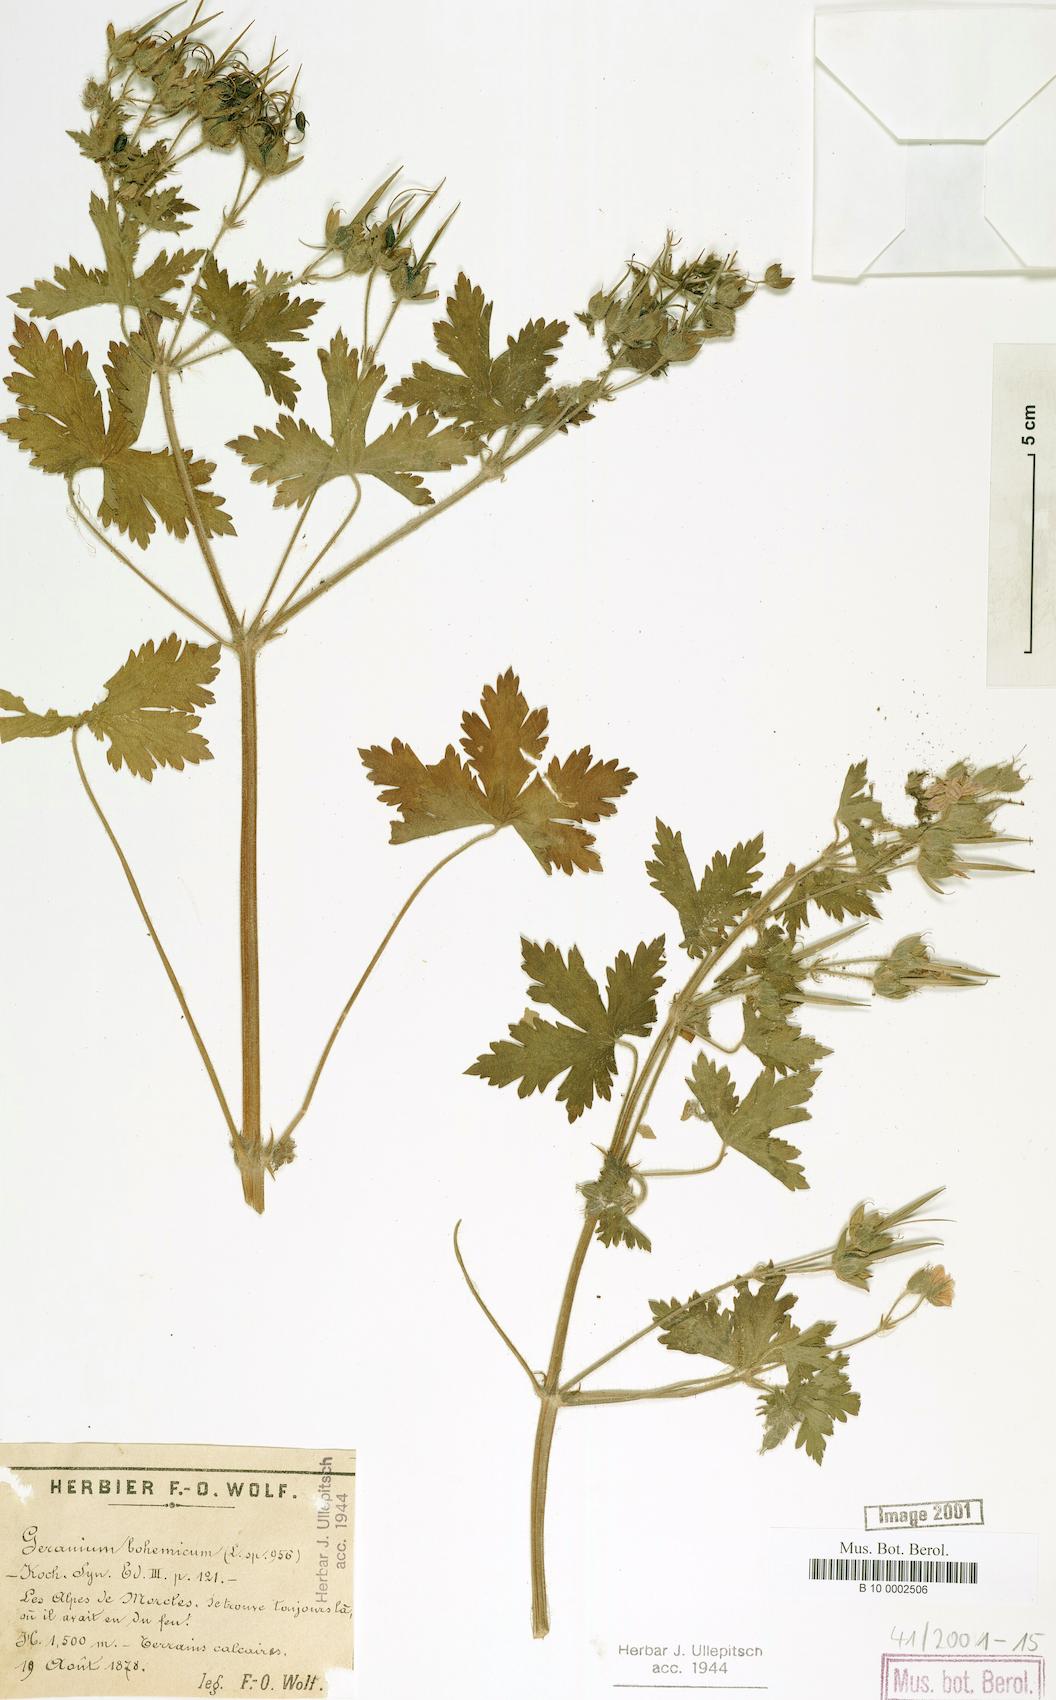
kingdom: Plantae
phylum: Tracheophyta
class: Magnoliopsida
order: Geraniales
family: Geraniaceae
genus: Geranium
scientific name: Geranium bohemicum
